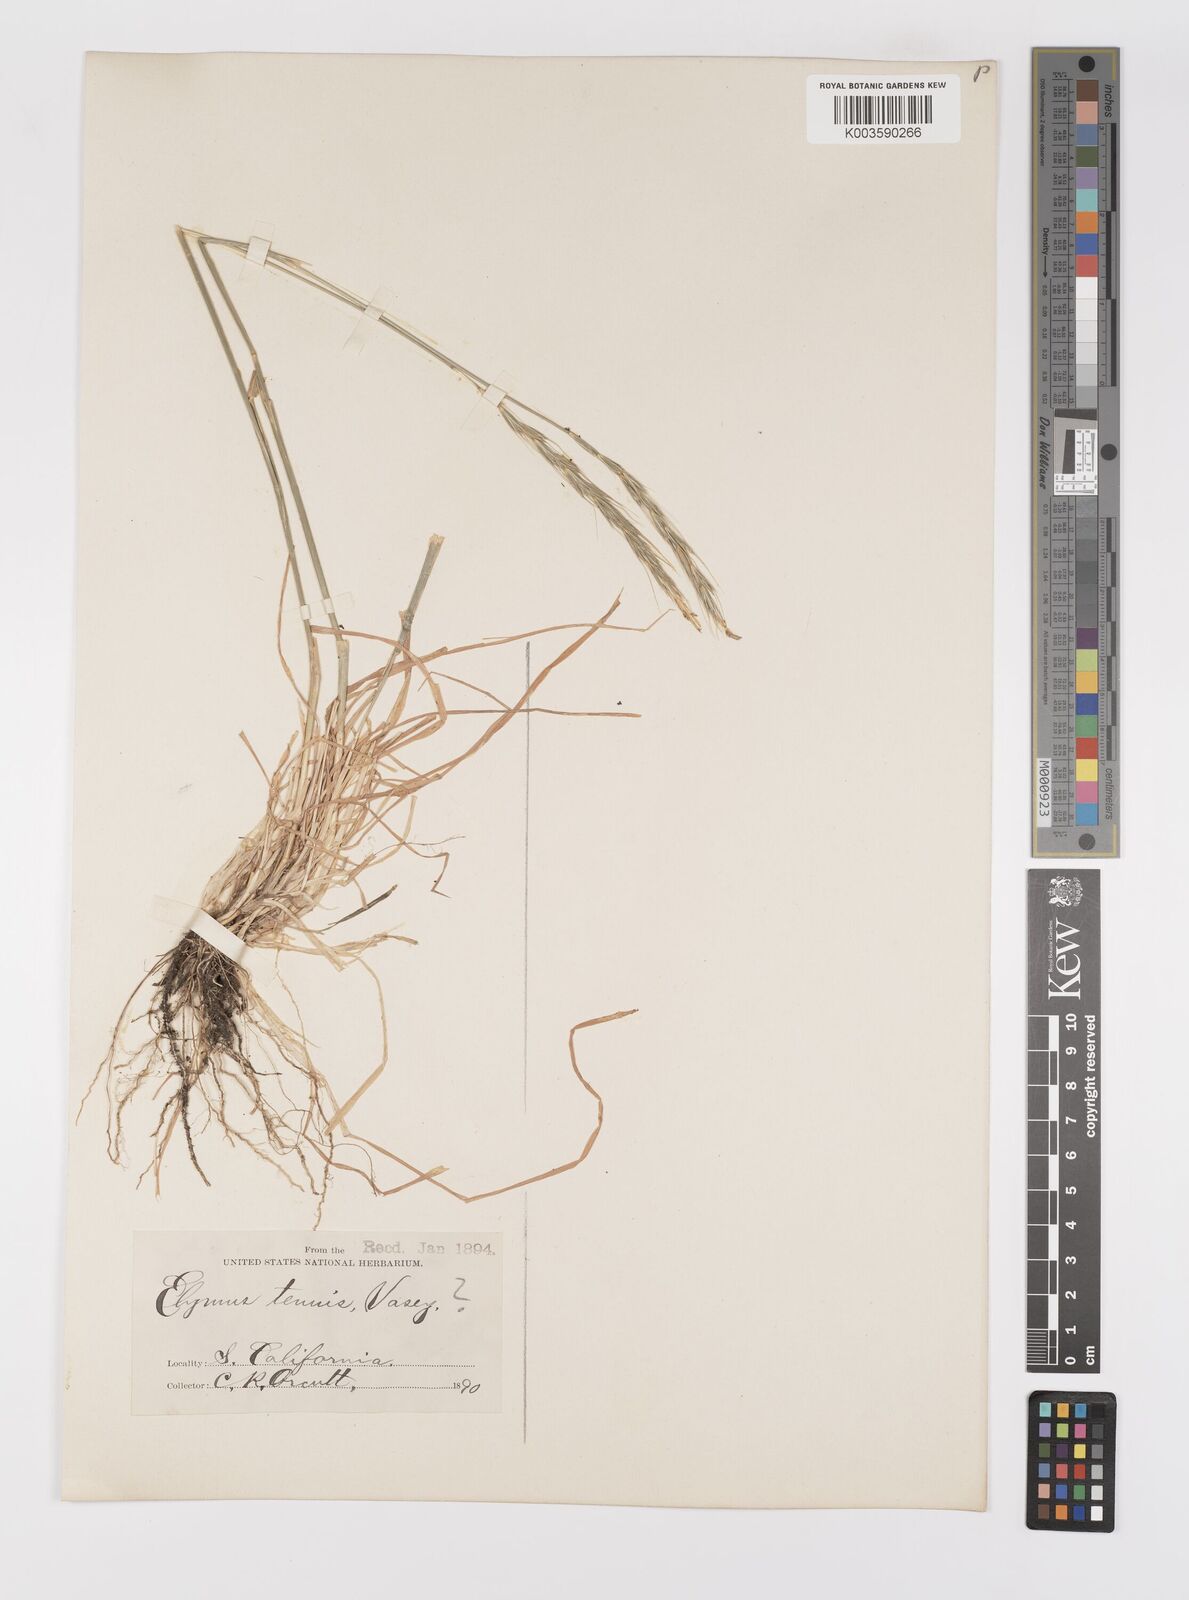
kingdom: Plantae
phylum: Tracheophyta
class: Liliopsida
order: Poales
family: Poaceae
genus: Elymus
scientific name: Elymus
